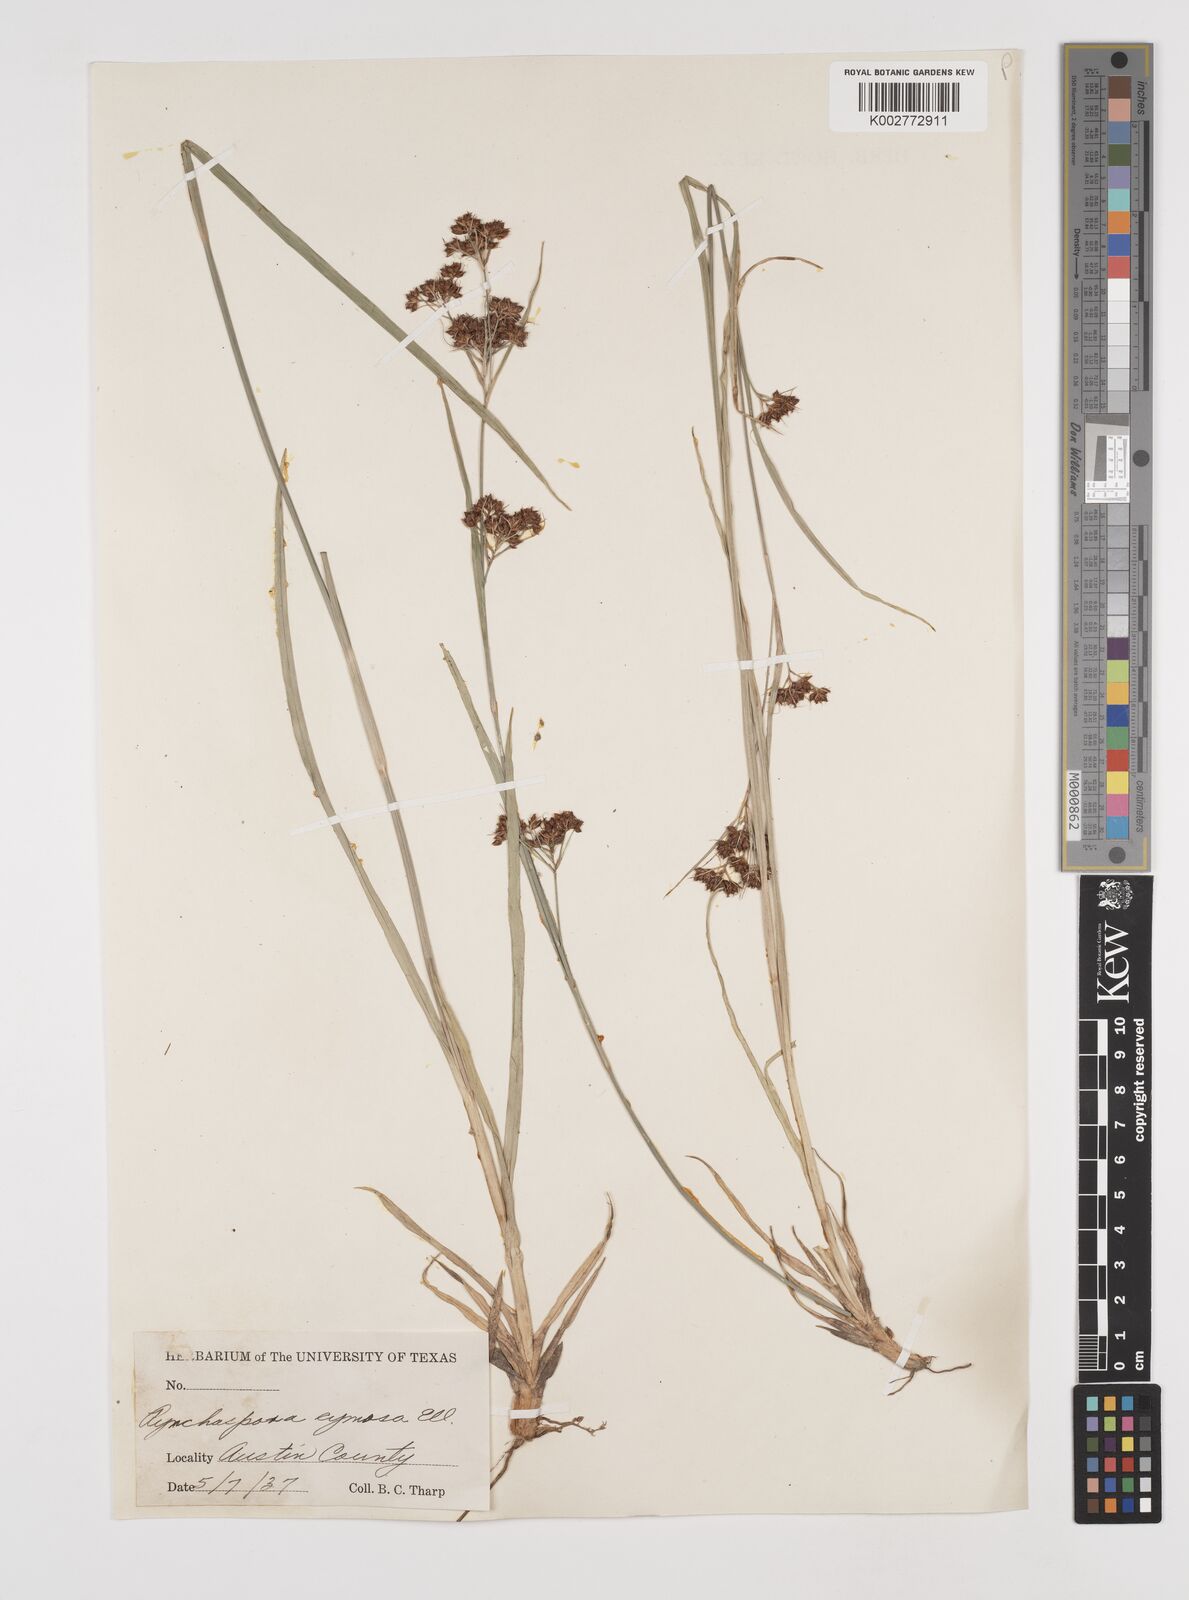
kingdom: Plantae
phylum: Tracheophyta
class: Liliopsida
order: Poales
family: Cyperaceae
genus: Scirpus
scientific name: Scirpus polyphyllus
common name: Leafy bulrush
